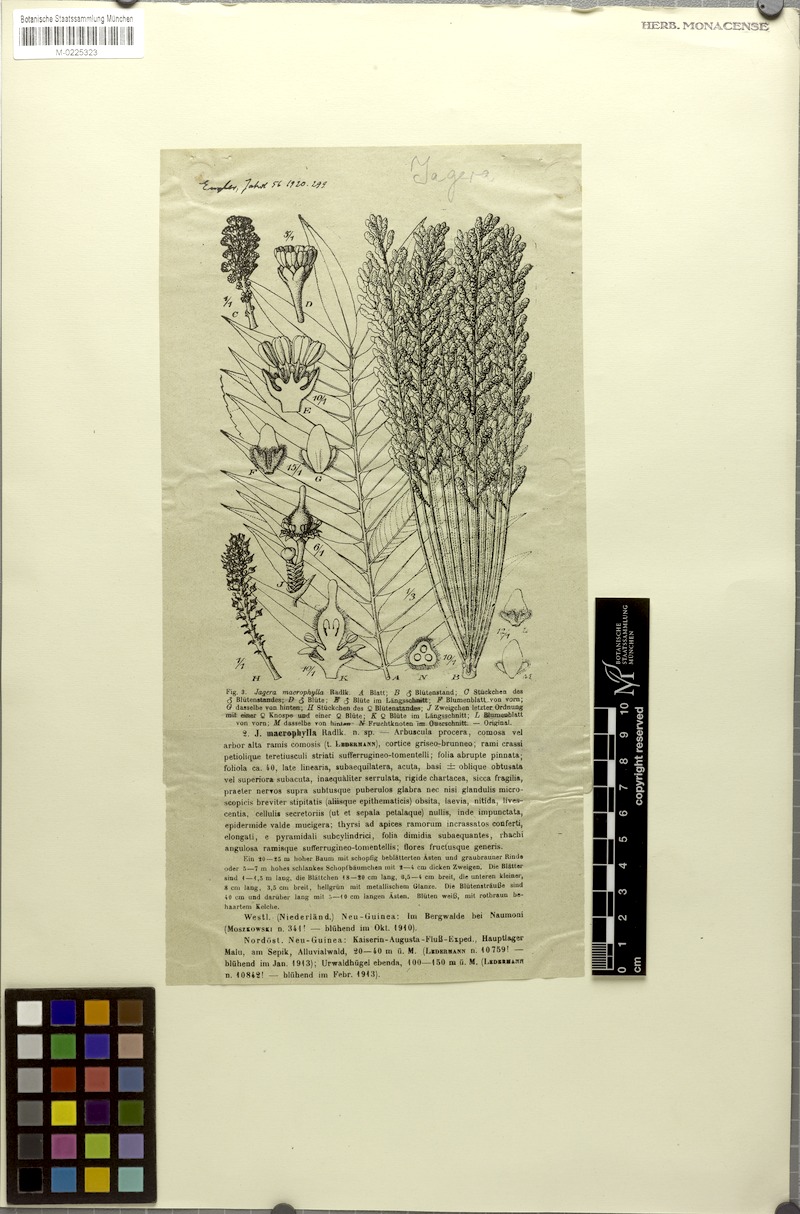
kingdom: Plantae
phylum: Tracheophyta
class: Magnoliopsida
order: Sapindales
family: Sapindaceae
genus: Jagera
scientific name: Jagera javanica
